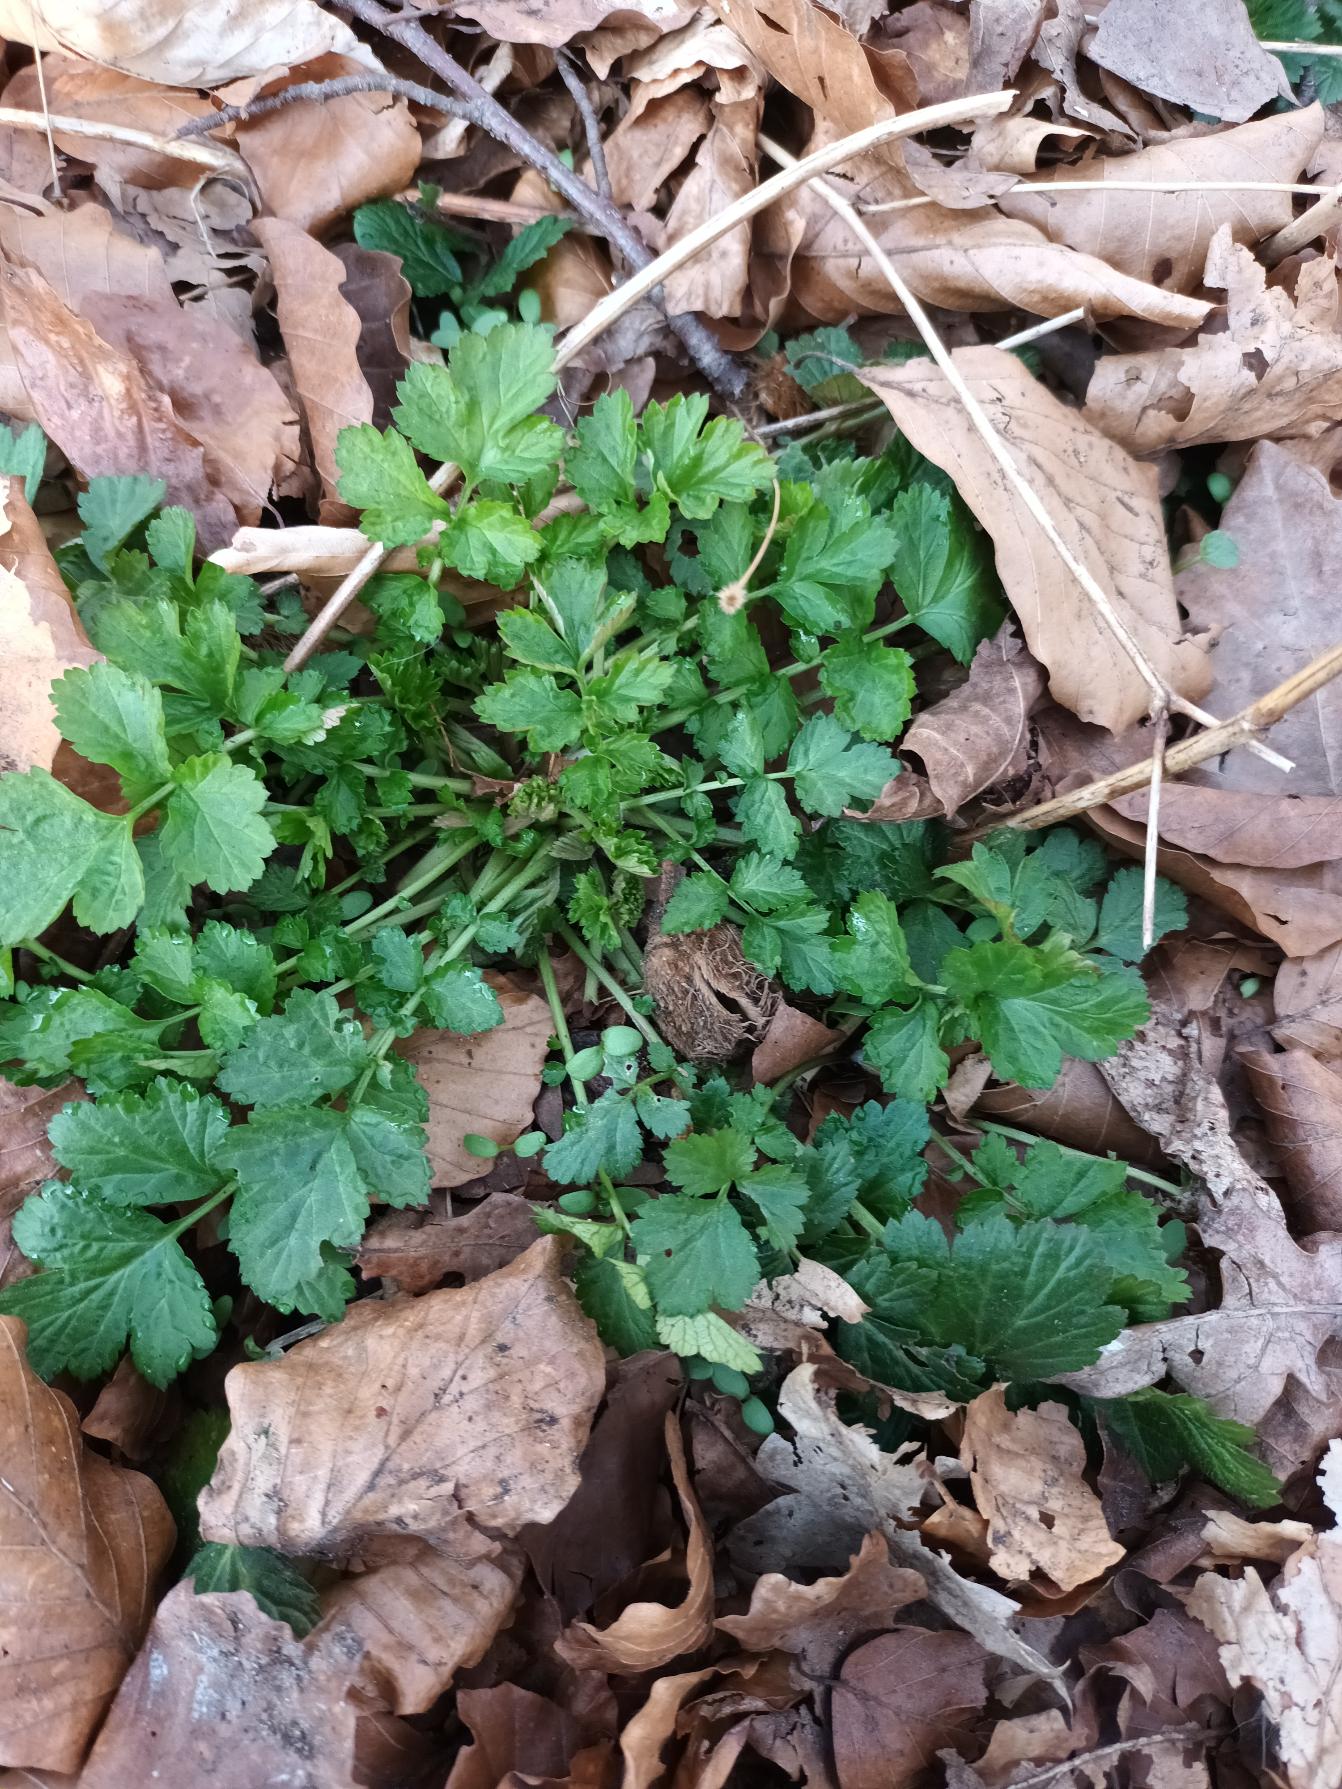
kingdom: Plantae
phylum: Tracheophyta
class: Magnoliopsida
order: Rosales
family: Rosaceae
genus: Geum
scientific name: Geum urbanum
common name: Feber-nellikerod
